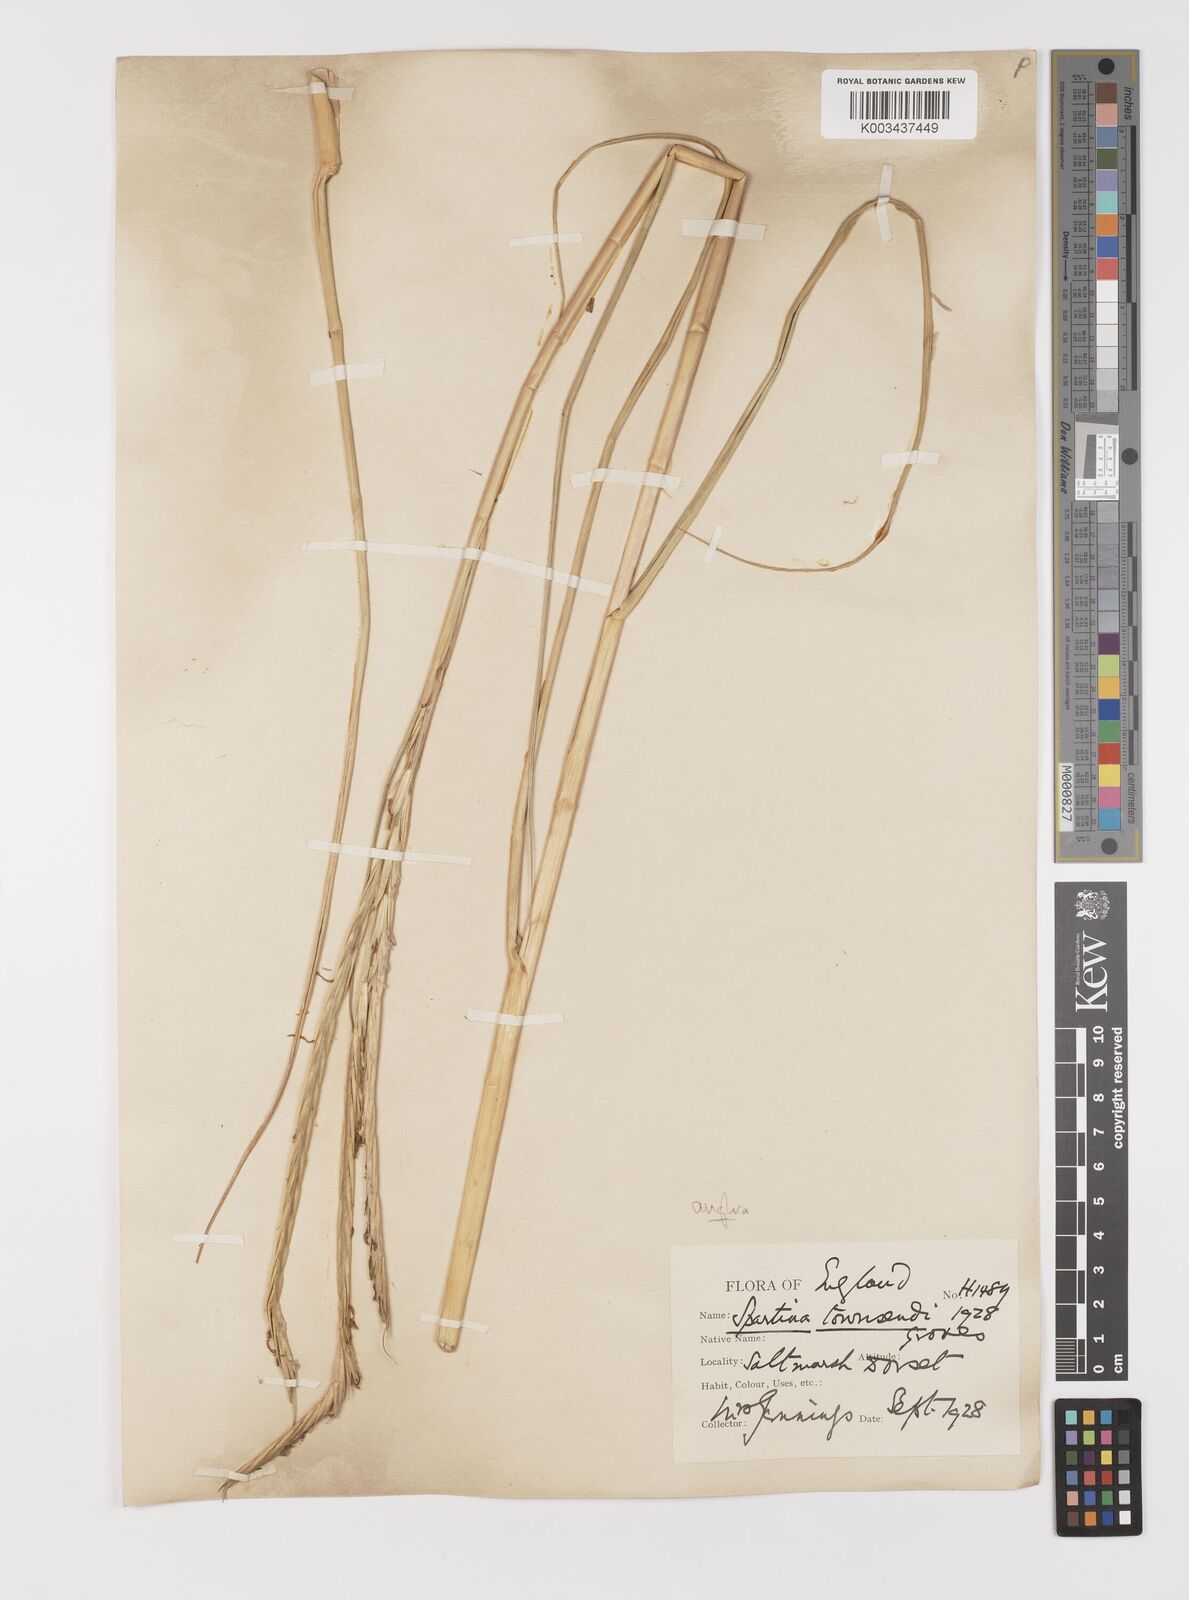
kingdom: Plantae
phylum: Tracheophyta
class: Liliopsida
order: Poales
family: Poaceae
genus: Sporobolus
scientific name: Sporobolus anglicus
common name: English cordgrass
